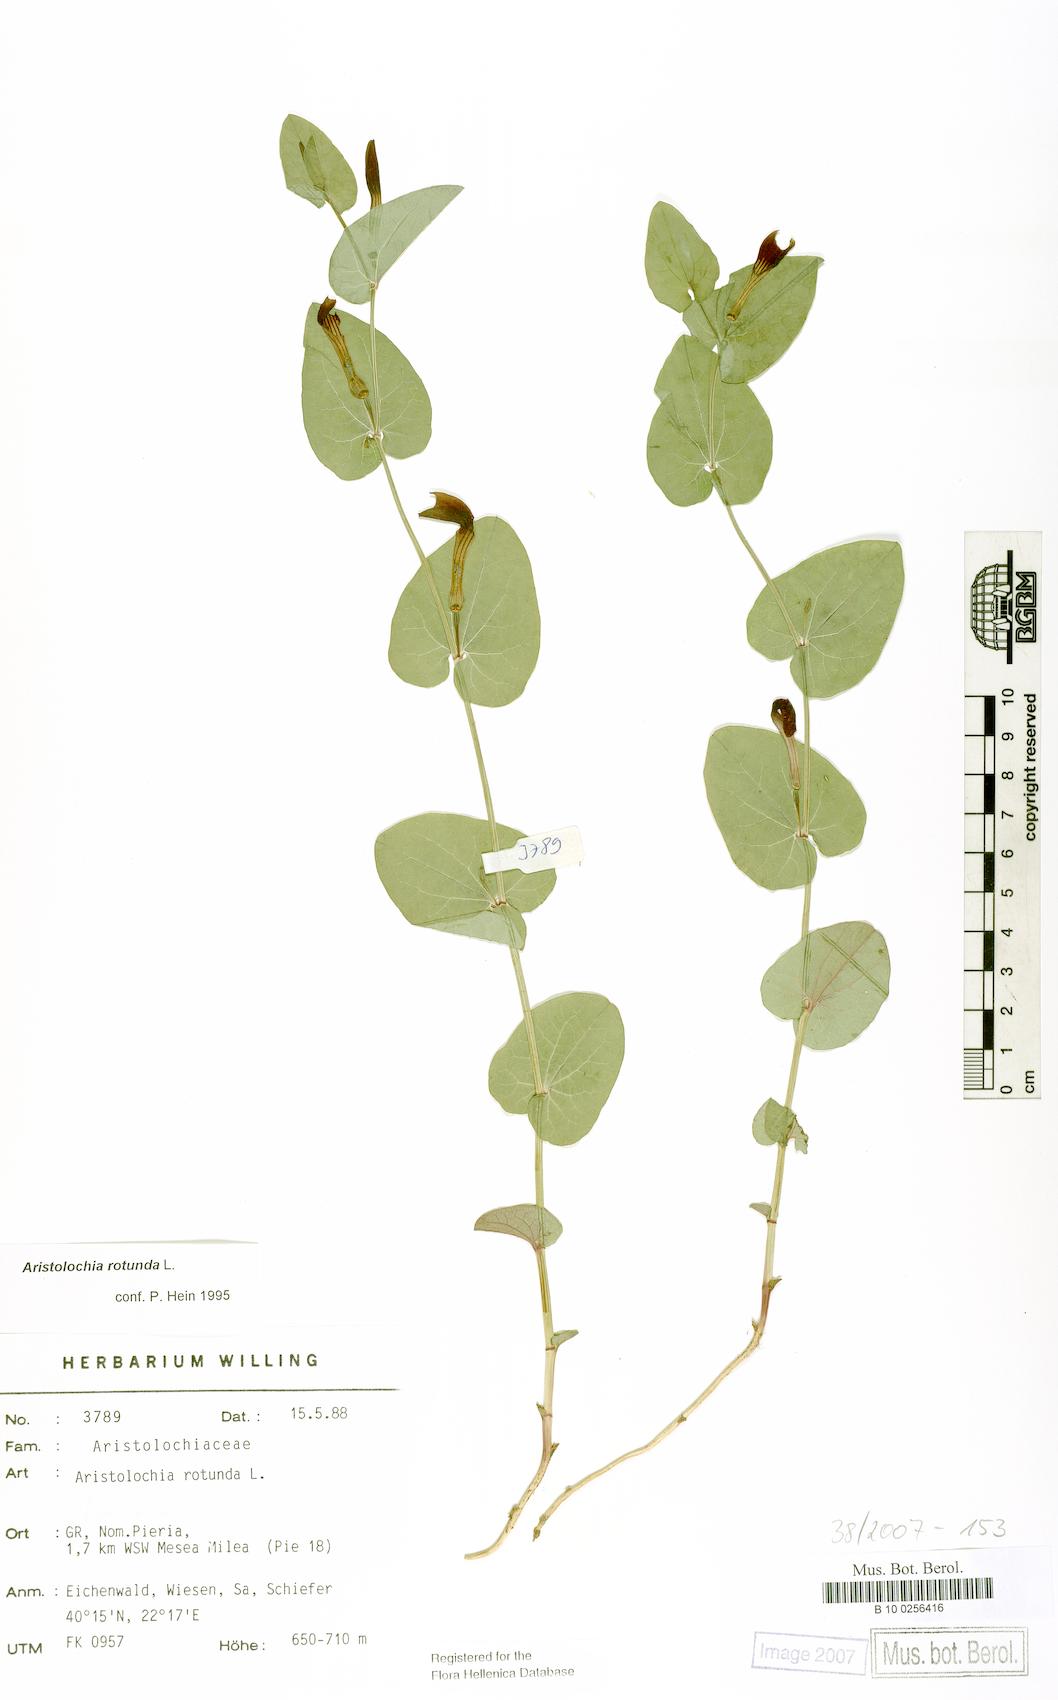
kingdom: Plantae
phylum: Tracheophyta
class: Magnoliopsida
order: Piperales
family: Aristolochiaceae
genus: Aristolochia
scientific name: Aristolochia rotunda
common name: Smearwort
